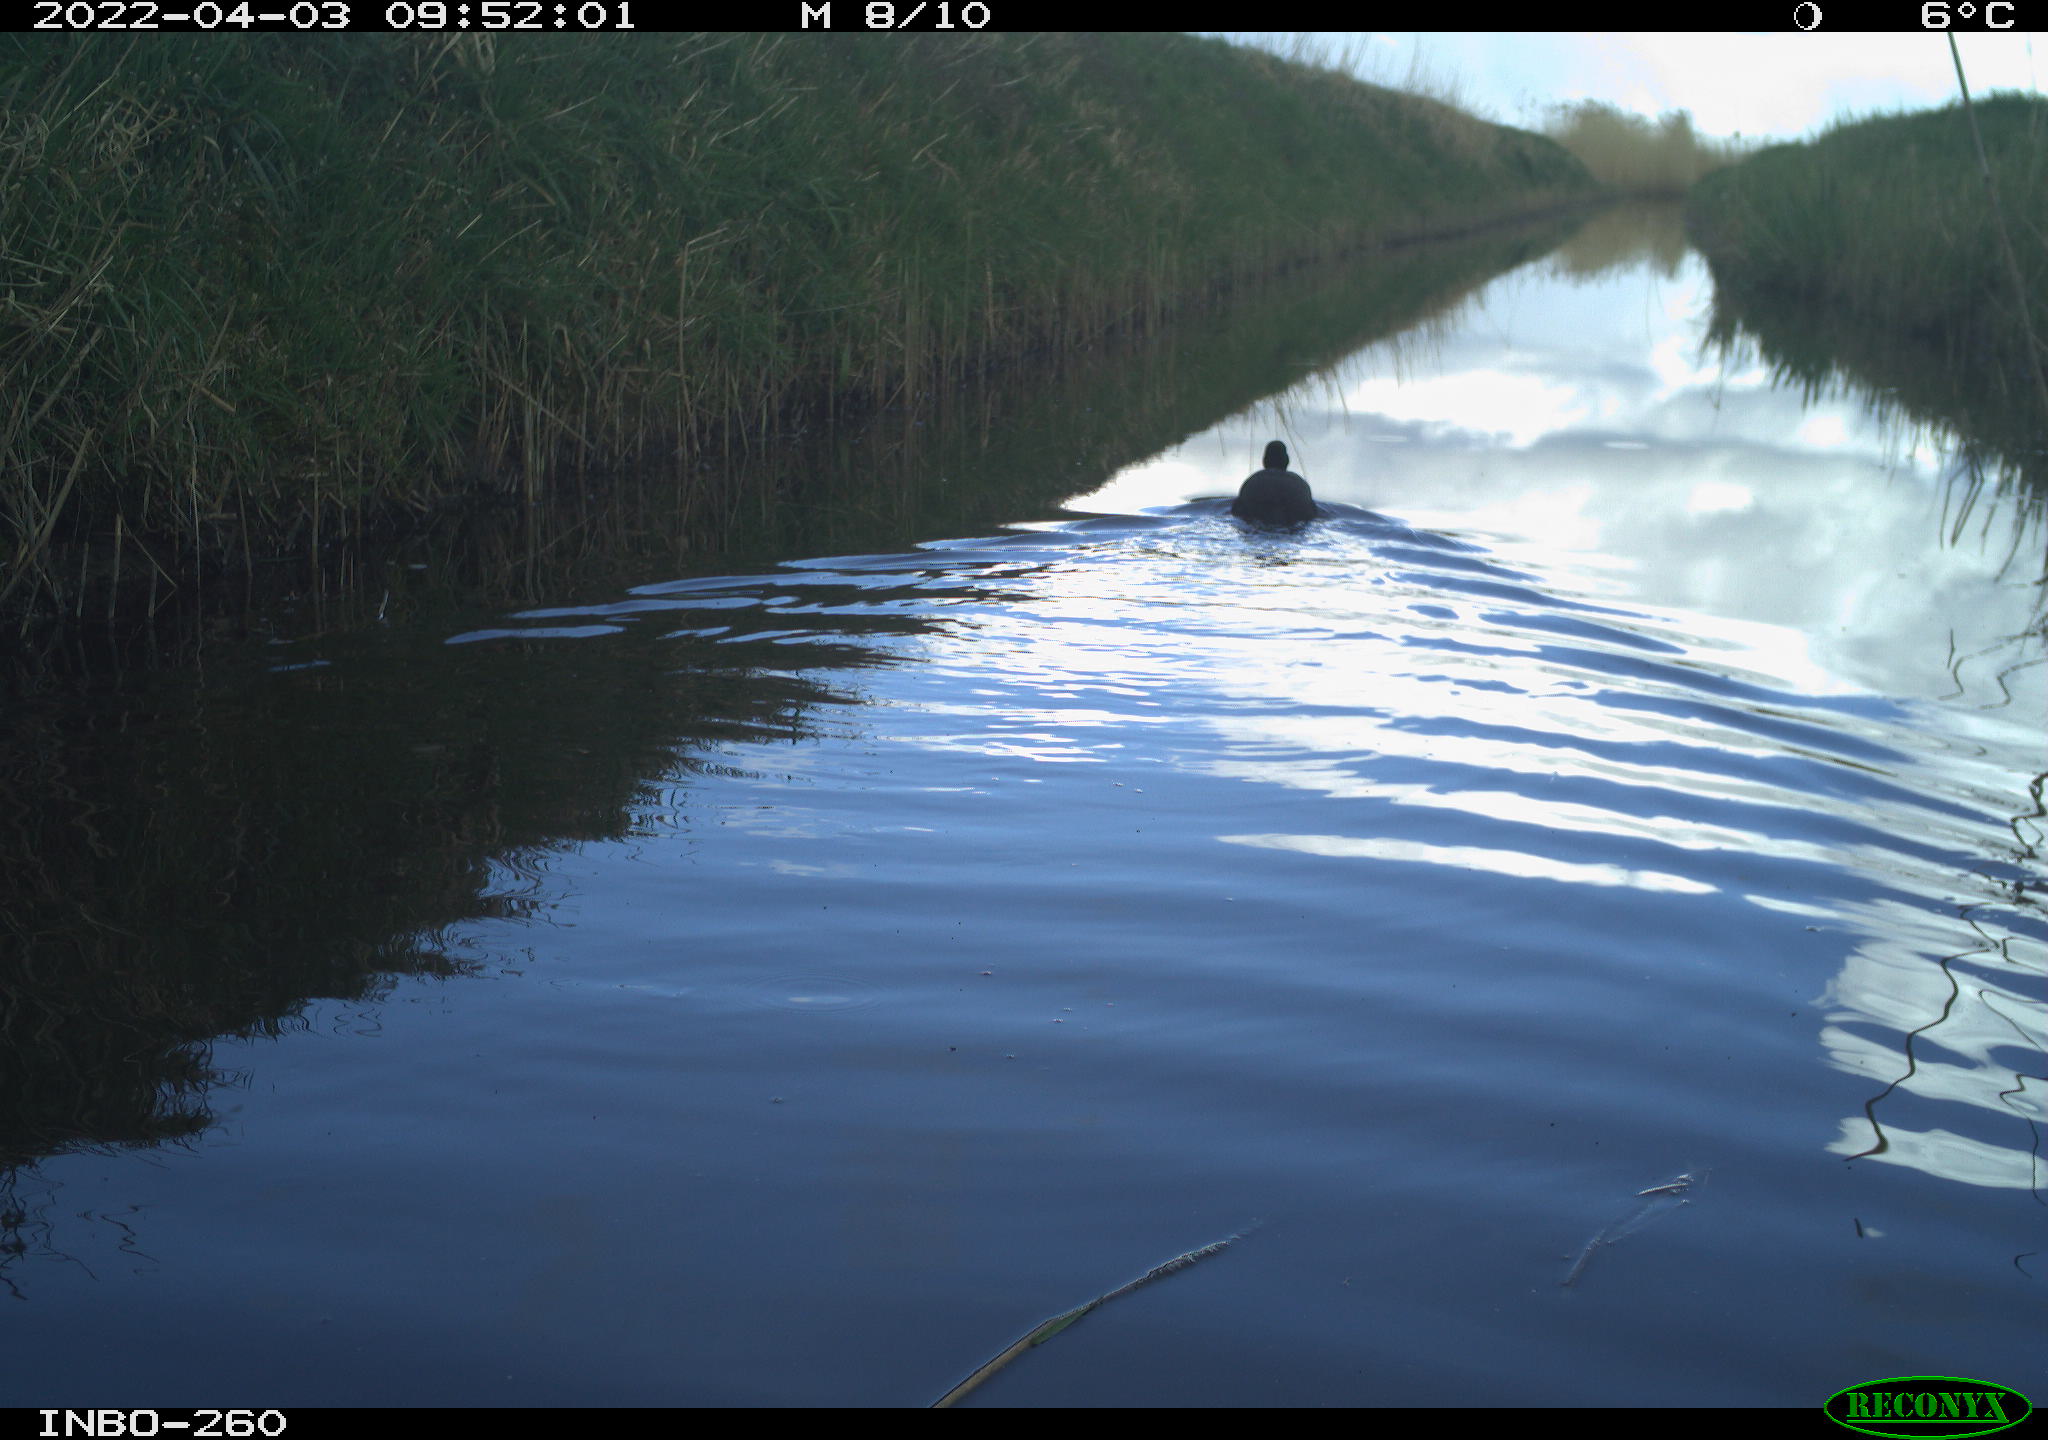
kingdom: Animalia
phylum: Chordata
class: Aves
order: Gruiformes
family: Rallidae
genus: Fulica
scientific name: Fulica atra
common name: Eurasian coot
